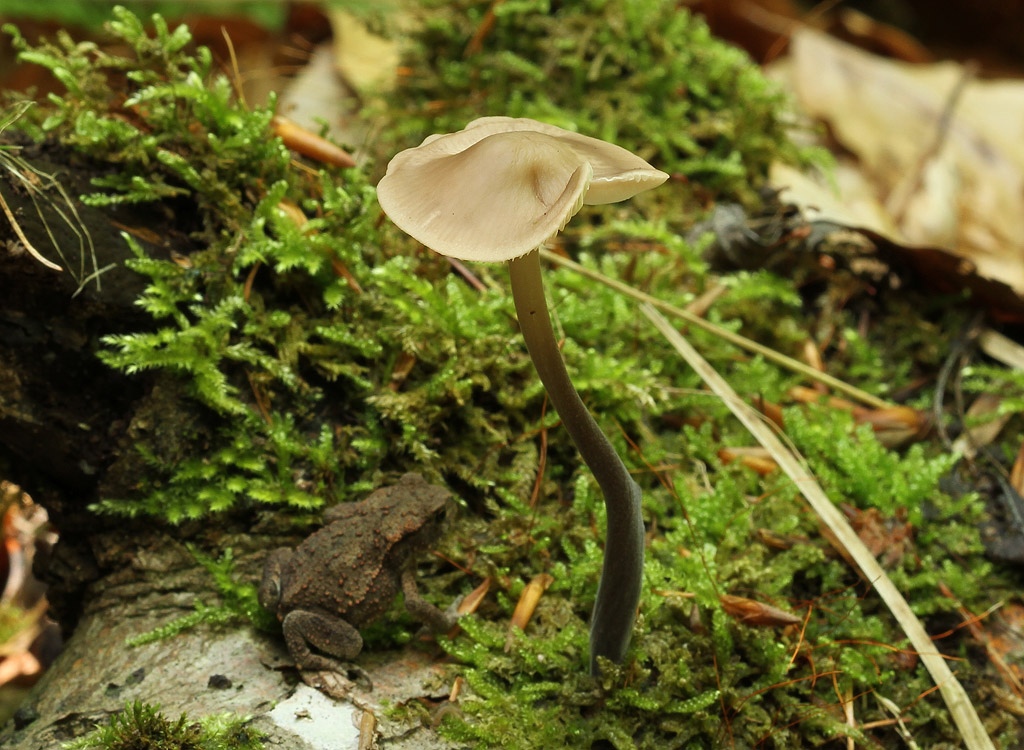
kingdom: Fungi
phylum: Basidiomycota
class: Agaricomycetes
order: Agaricales
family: Omphalotaceae
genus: Mycetinis
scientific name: Mycetinis alliaceus
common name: stor løghat
